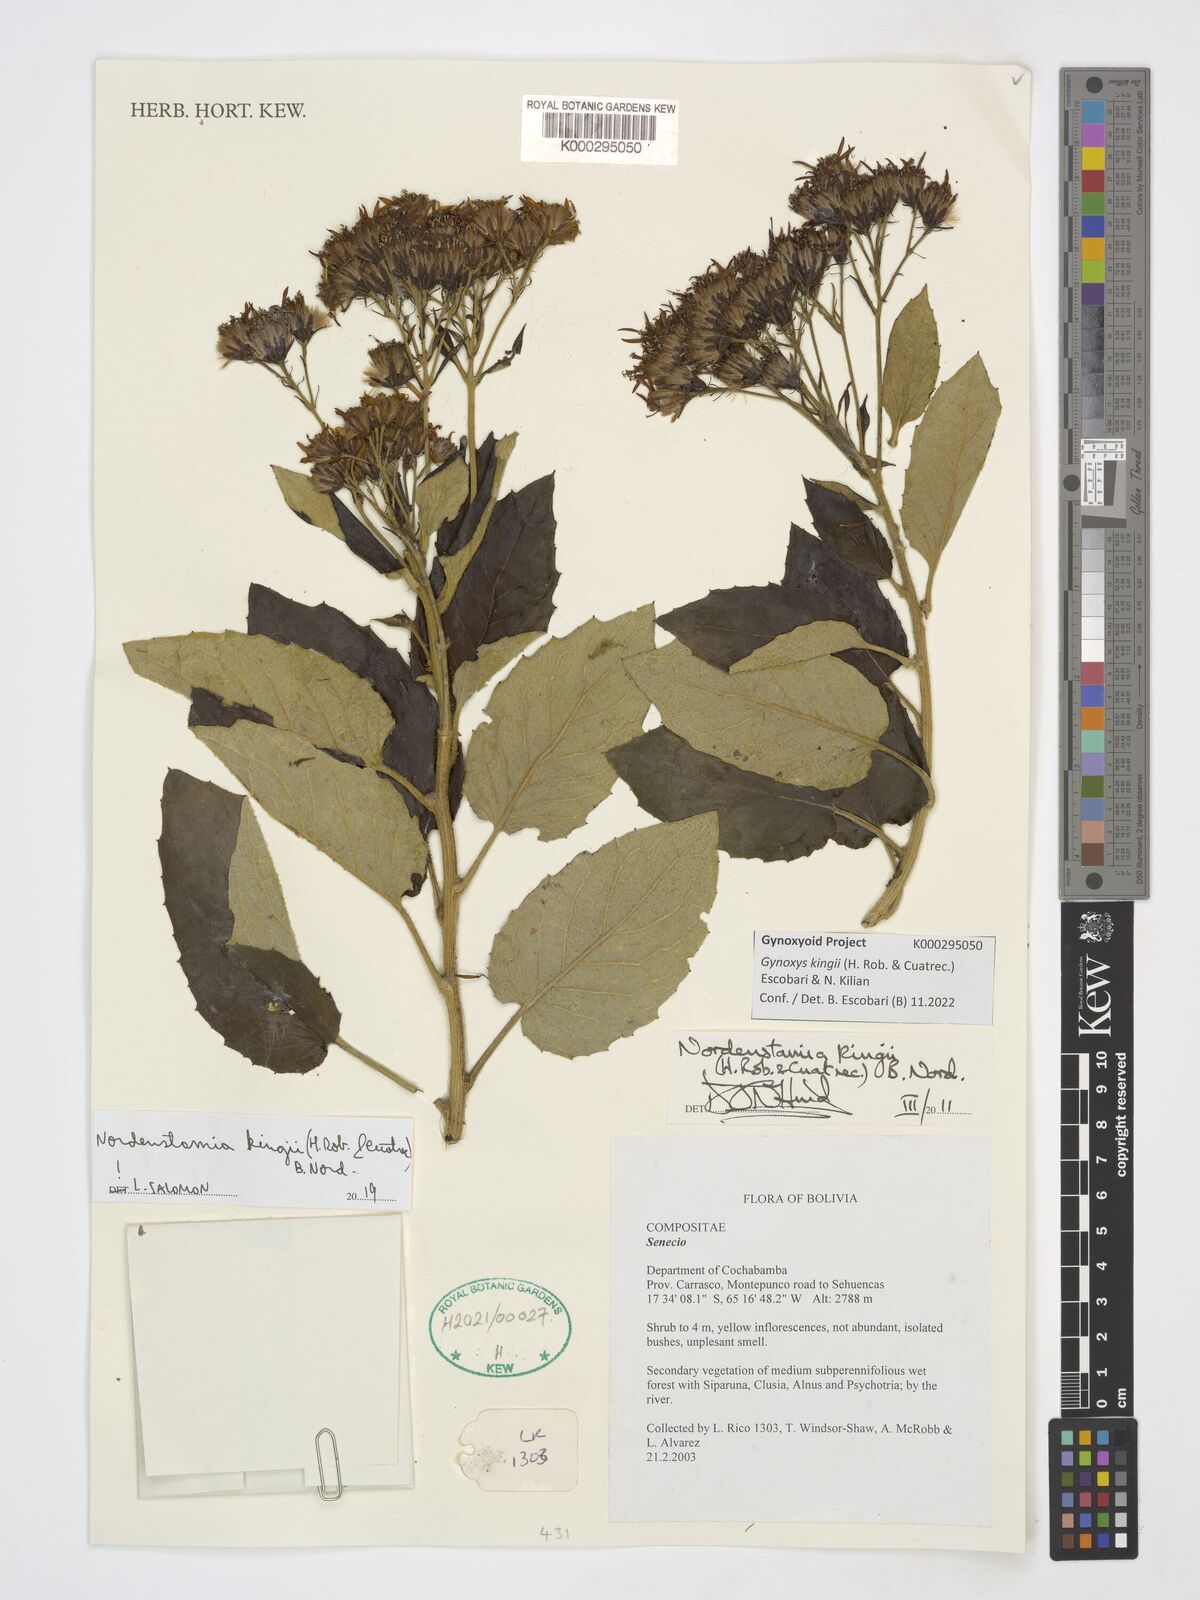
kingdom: Plantae
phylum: Tracheophyta
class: Magnoliopsida
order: Asterales
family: Asteraceae
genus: Gynoxys
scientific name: Gynoxys
